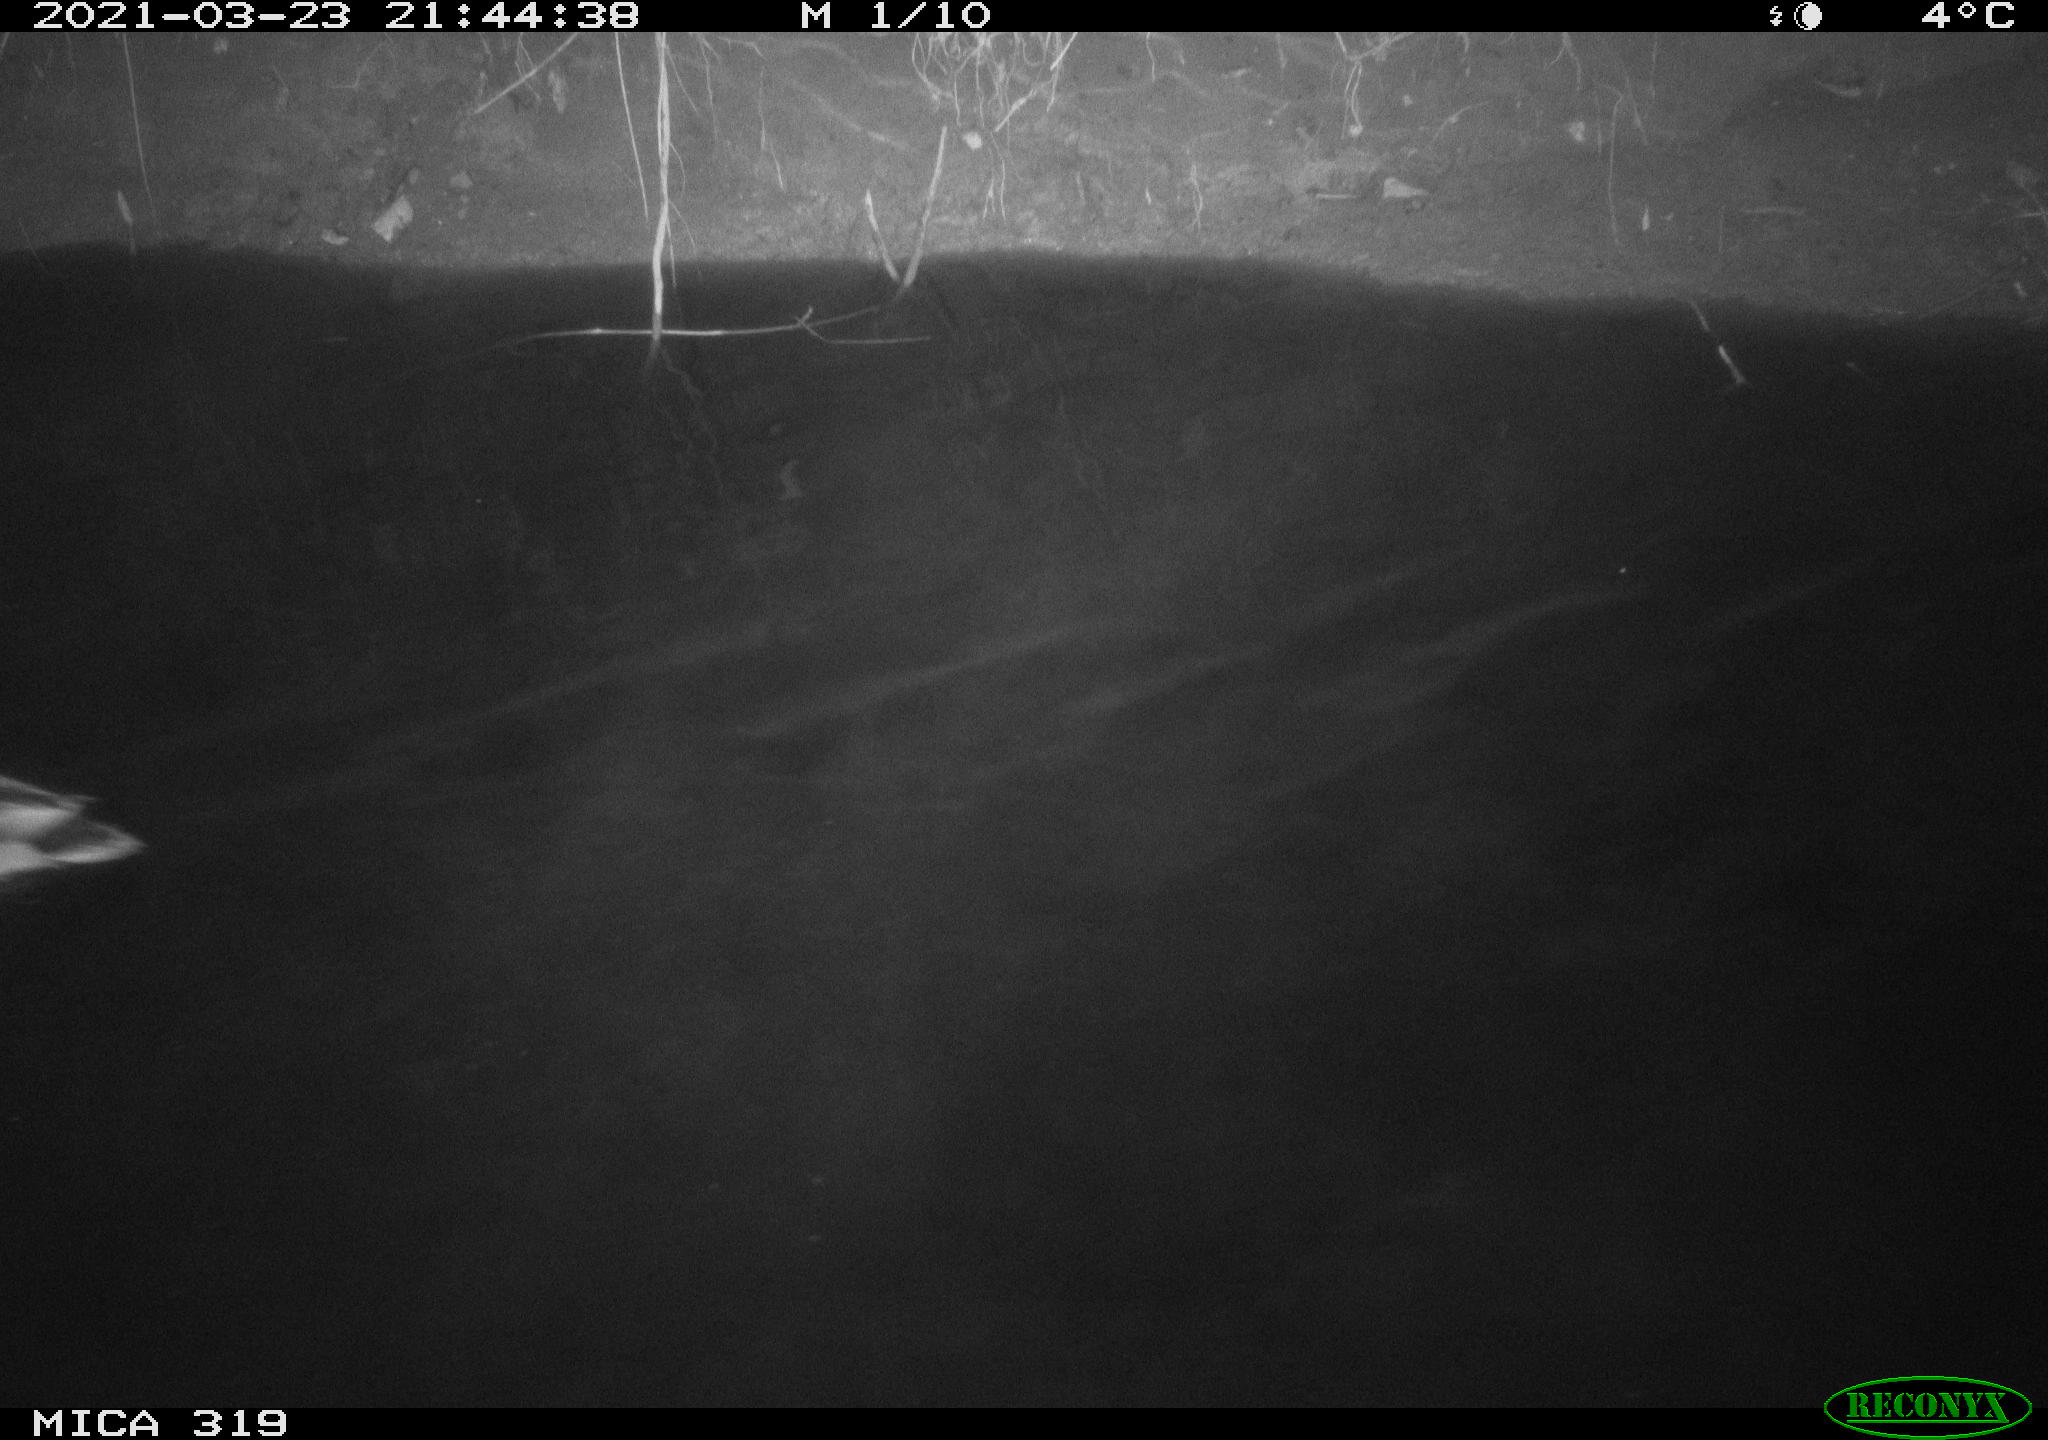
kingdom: Animalia
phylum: Chordata
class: Aves
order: Anseriformes
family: Anatidae
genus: Anas
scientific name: Anas platyrhynchos
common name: Mallard
